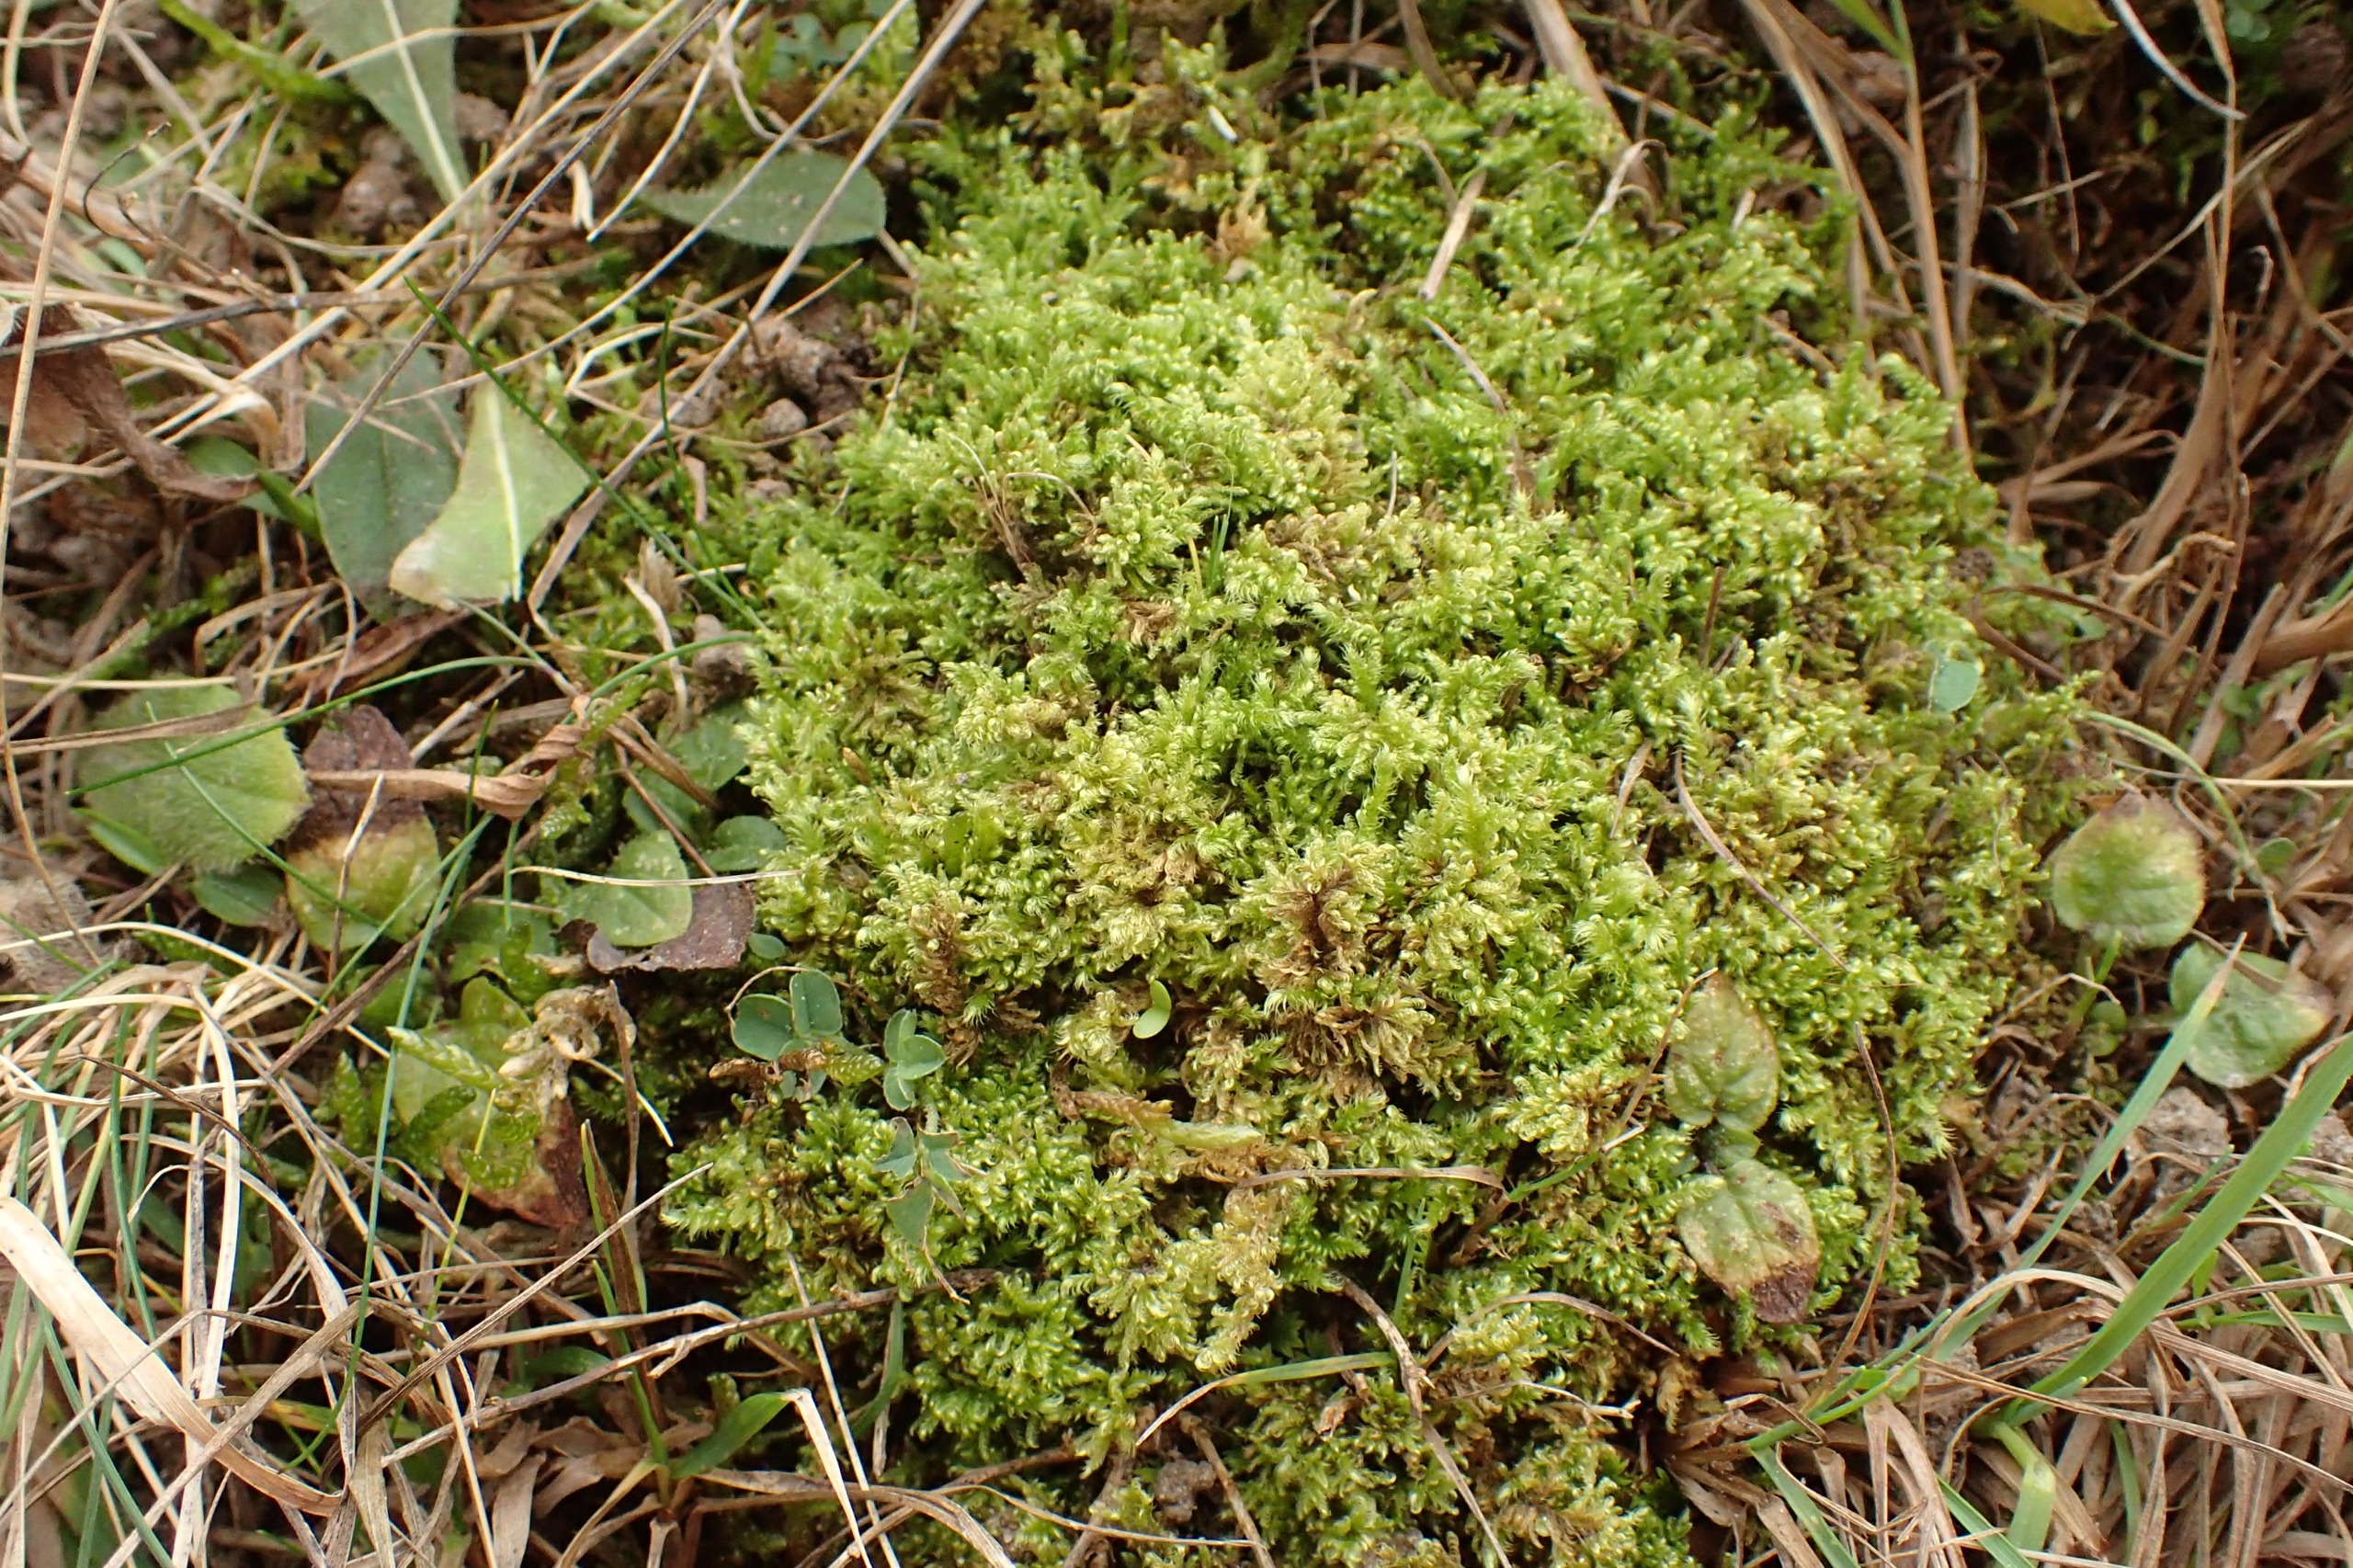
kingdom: Plantae
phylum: Bryophyta
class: Bryopsida
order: Hypnales
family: Myuriaceae
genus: Ctenidium
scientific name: Ctenidium molluscum
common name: Kalk-blødmos
